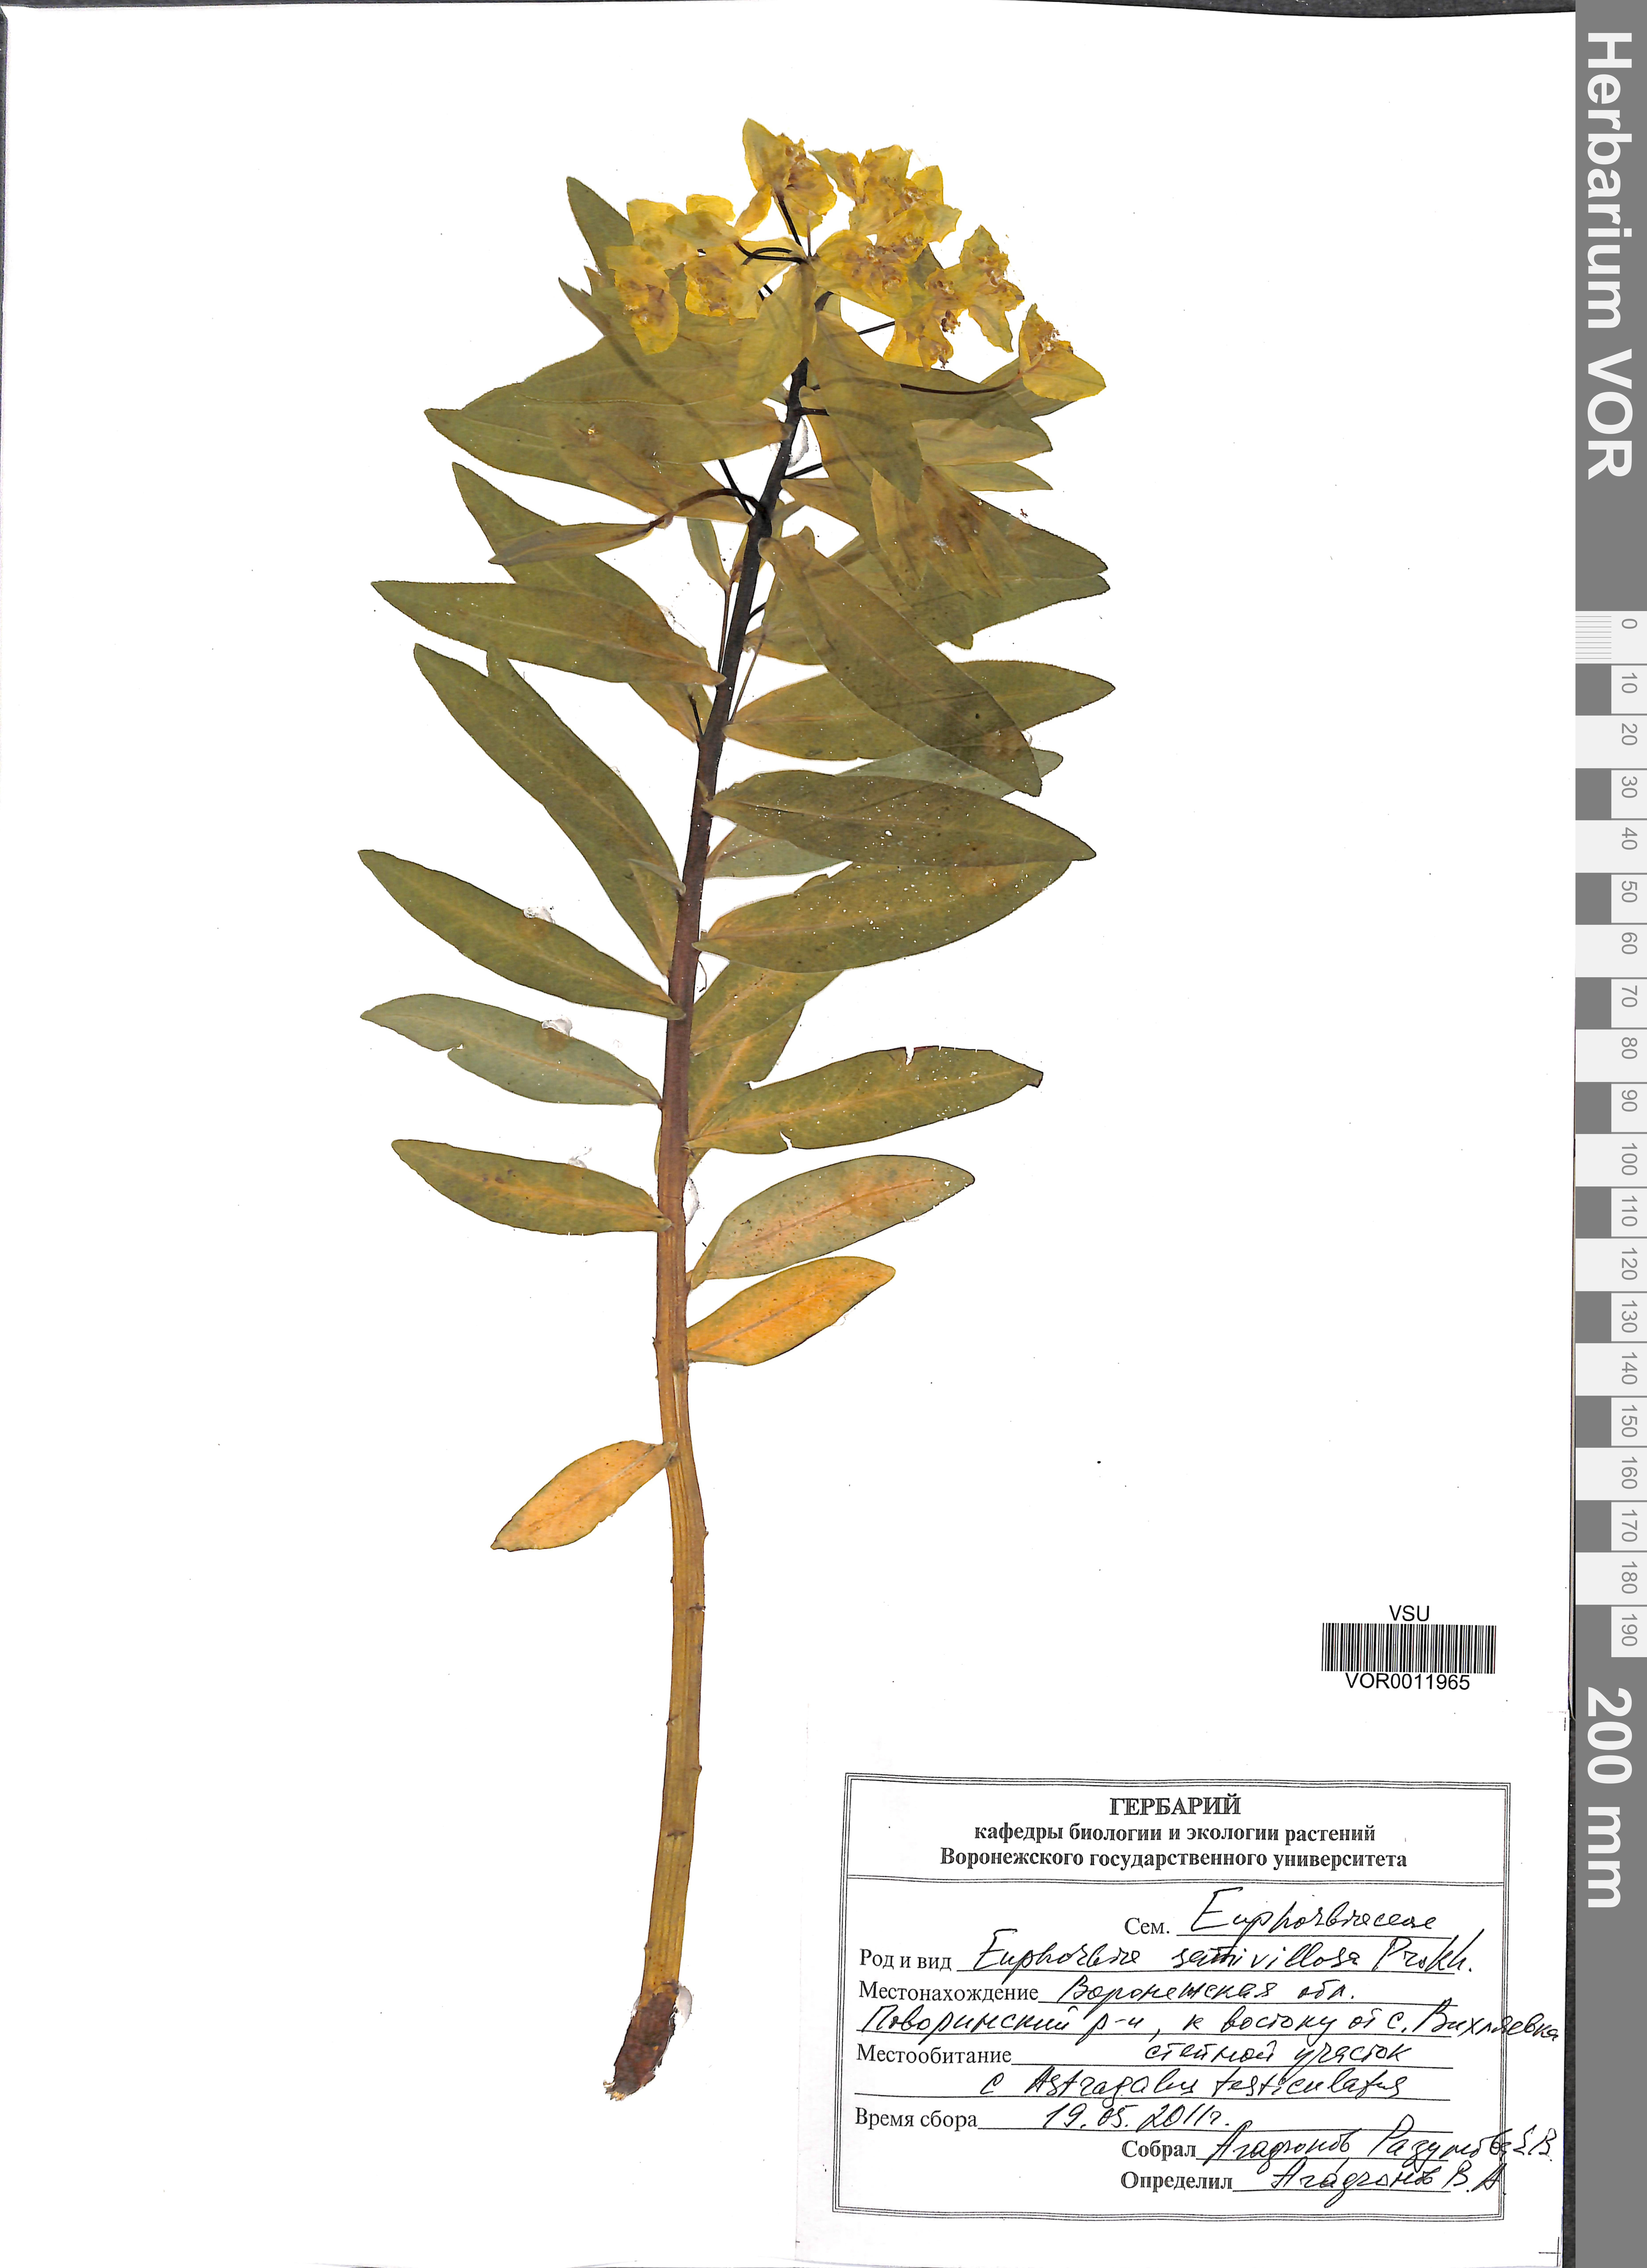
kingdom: Plantae
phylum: Tracheophyta
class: Magnoliopsida
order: Malpighiales
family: Euphorbiaceae
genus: Euphorbia
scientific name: Euphorbia semivillosa
